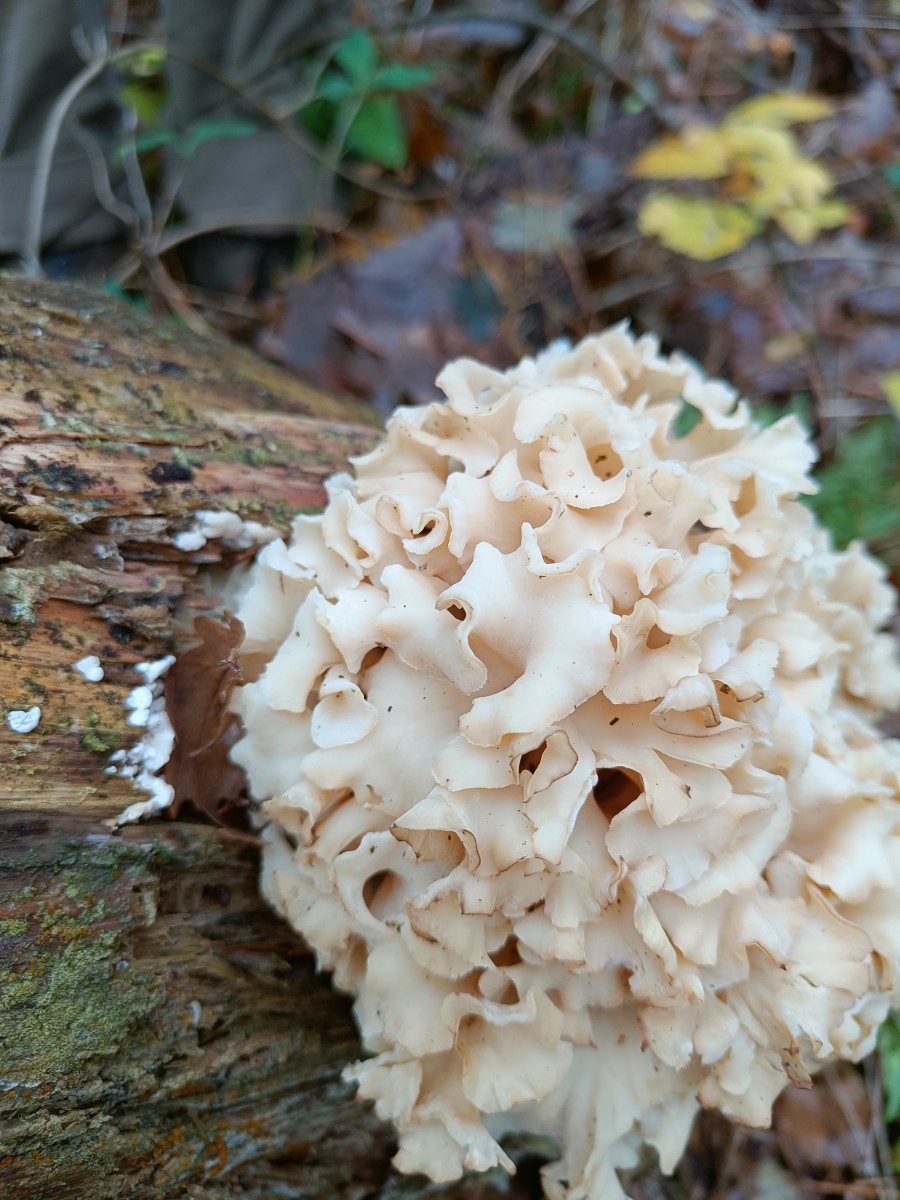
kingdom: Fungi
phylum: Basidiomycota
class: Agaricomycetes
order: Polyporales
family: Sparassidaceae
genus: Sparassis
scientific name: Sparassis crispa
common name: kruset blomkålssvamp
